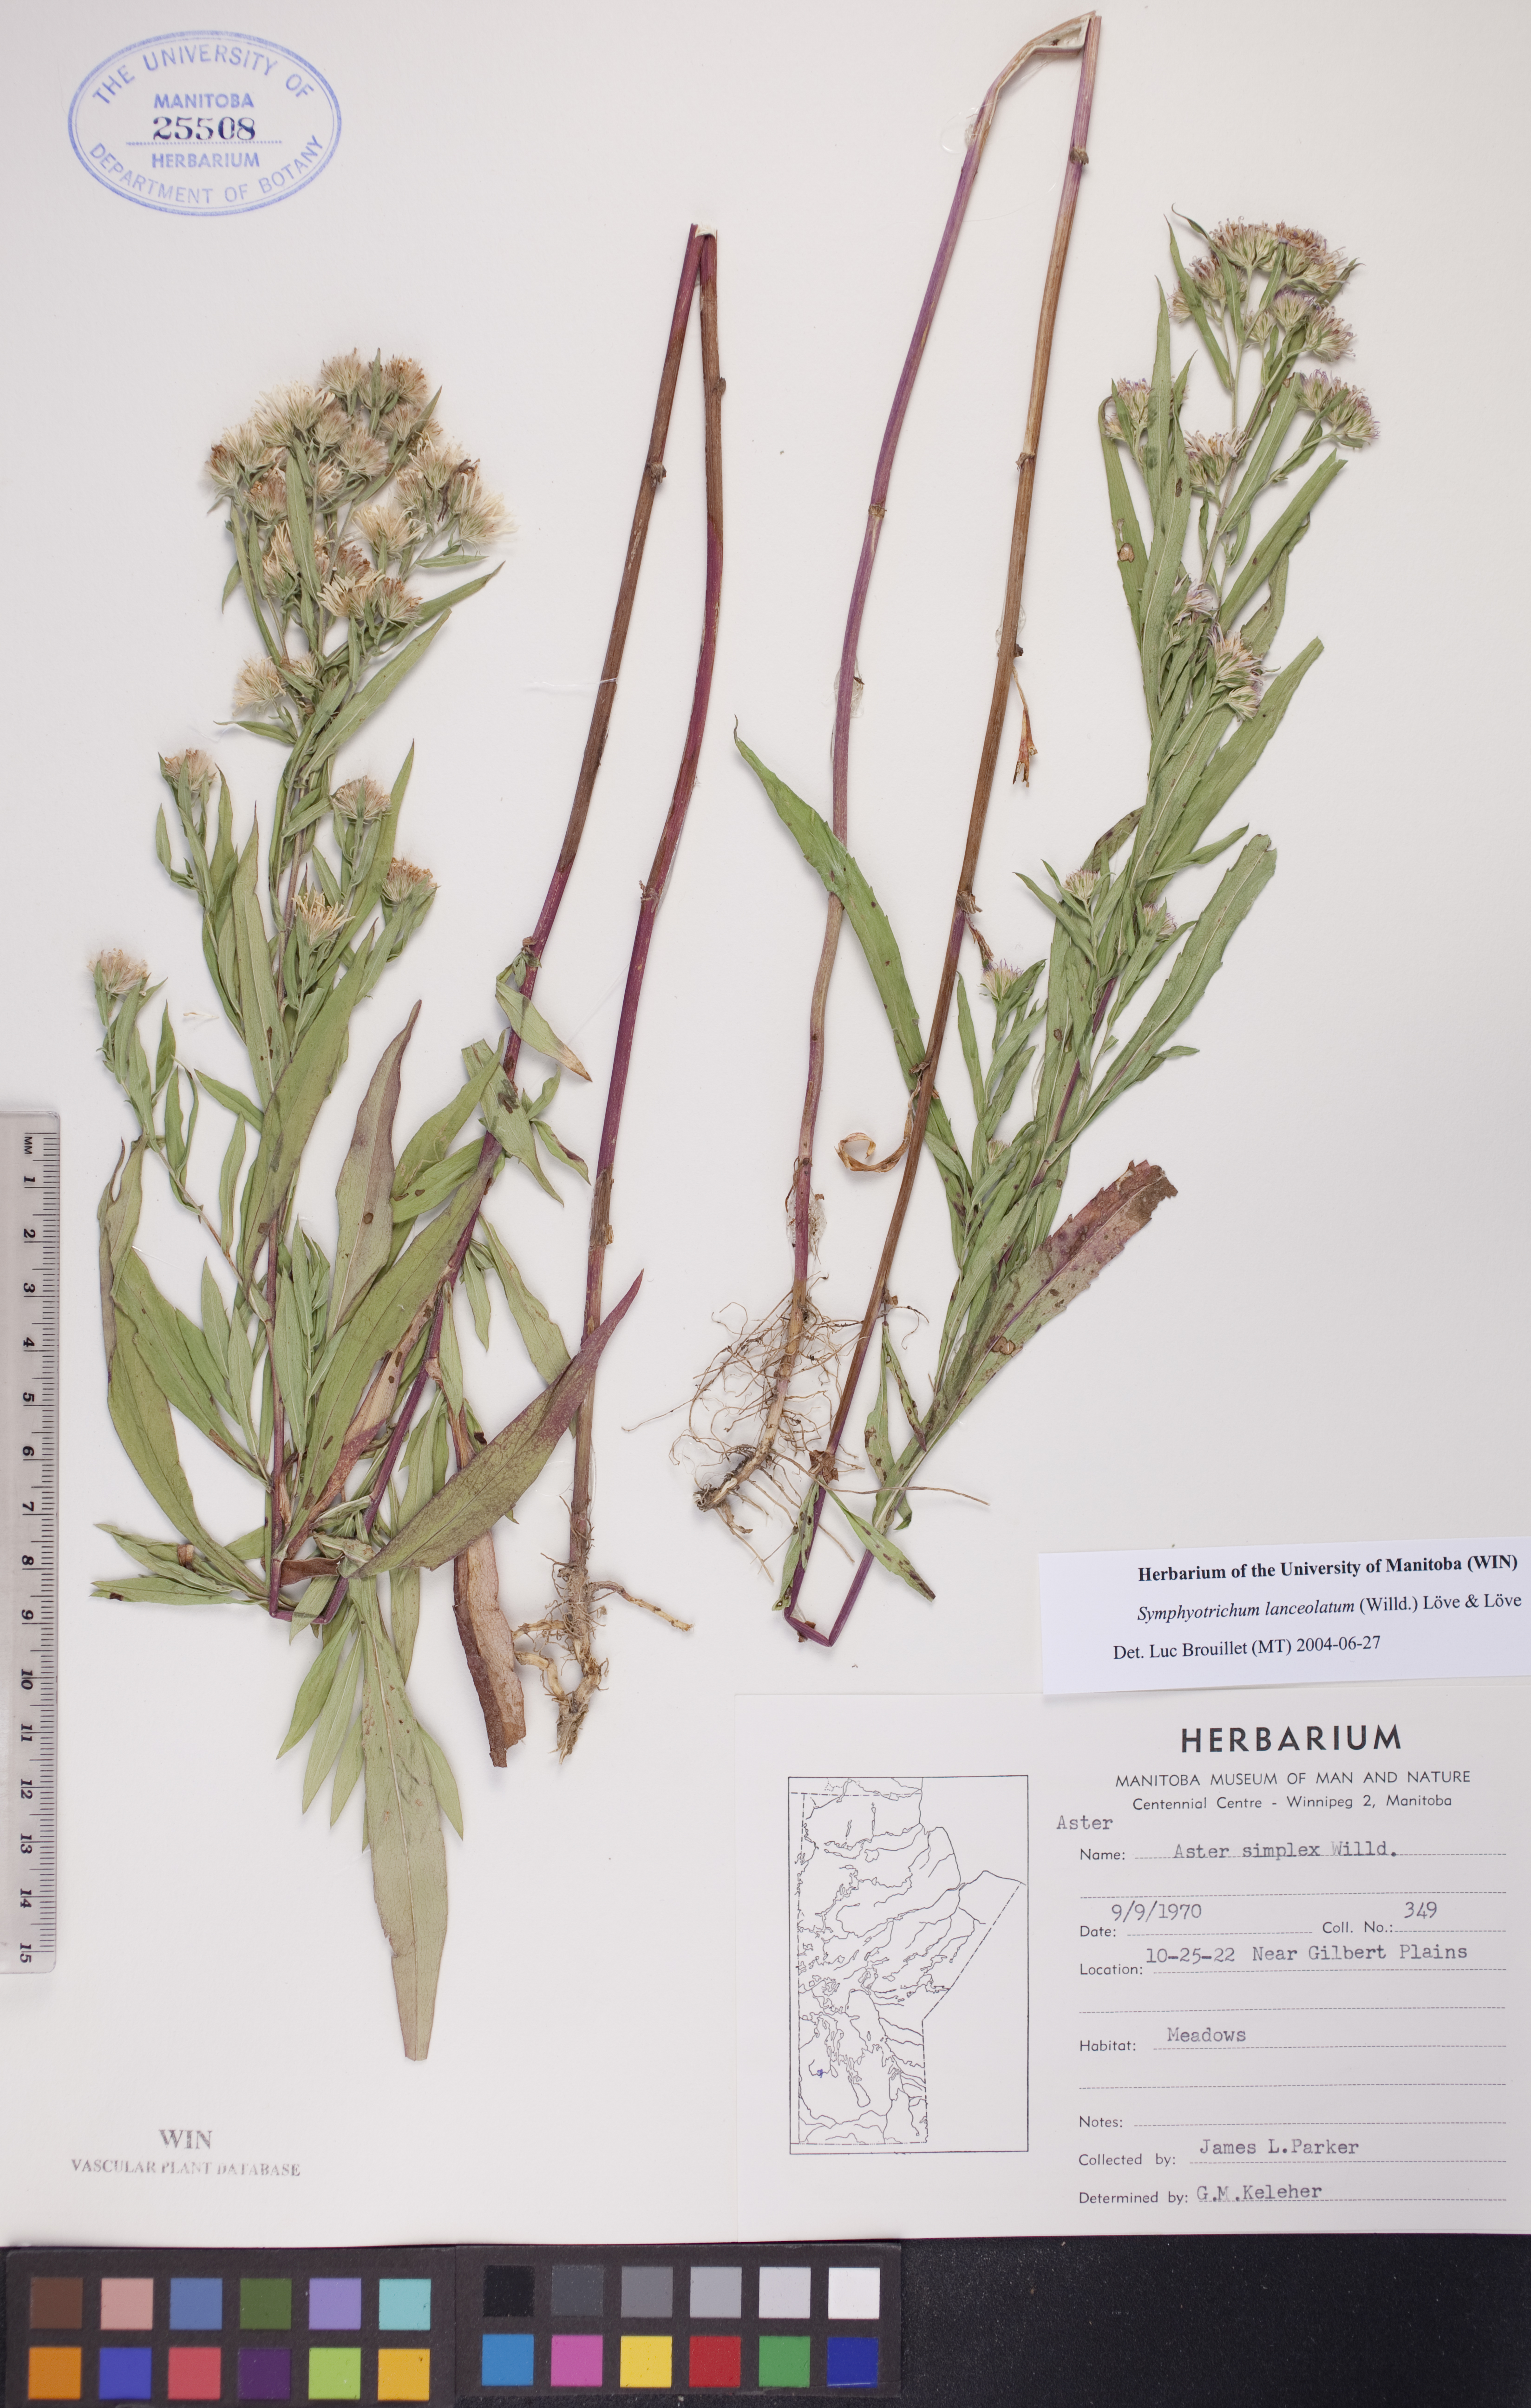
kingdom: Plantae
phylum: Tracheophyta
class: Magnoliopsida
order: Asterales
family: Asteraceae
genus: Symphyotrichum
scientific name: Symphyotrichum lanceolatum
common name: Panicled aster
